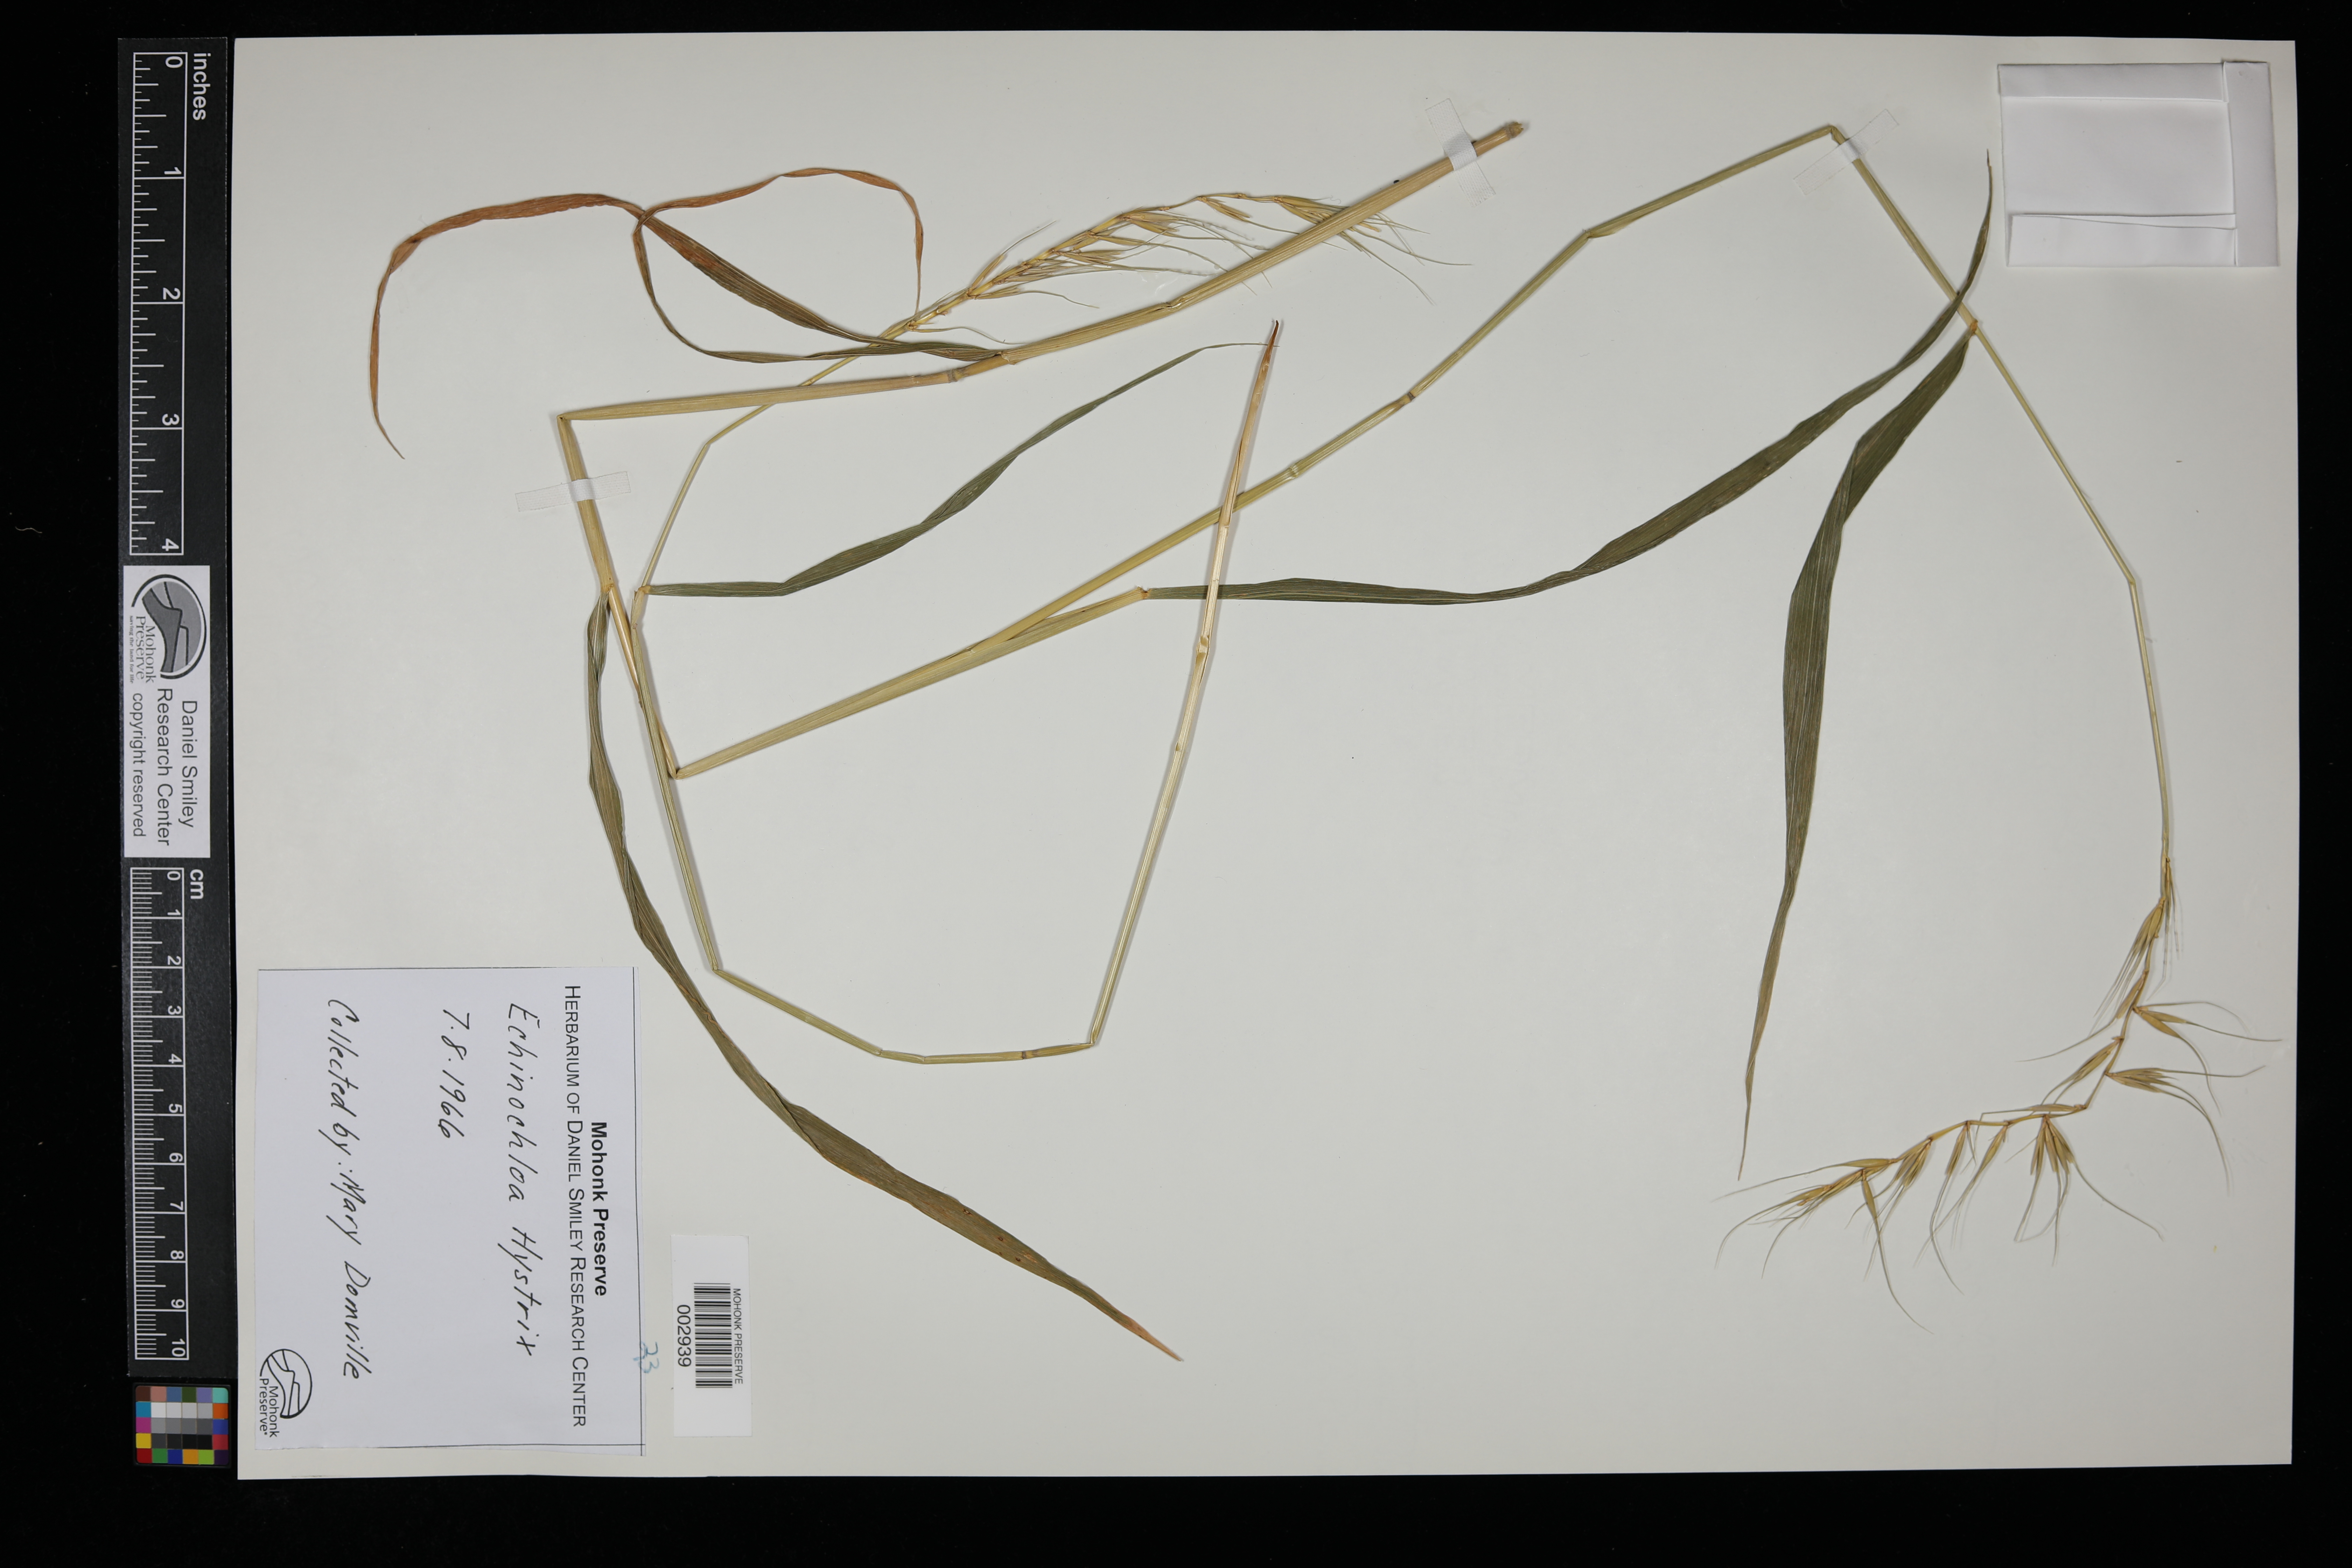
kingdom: Plantae
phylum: Tracheophyta
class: Liliopsida
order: Poales
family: Poaceae
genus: Elymus
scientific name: Elymus hystrix
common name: Bottlebrush grass
